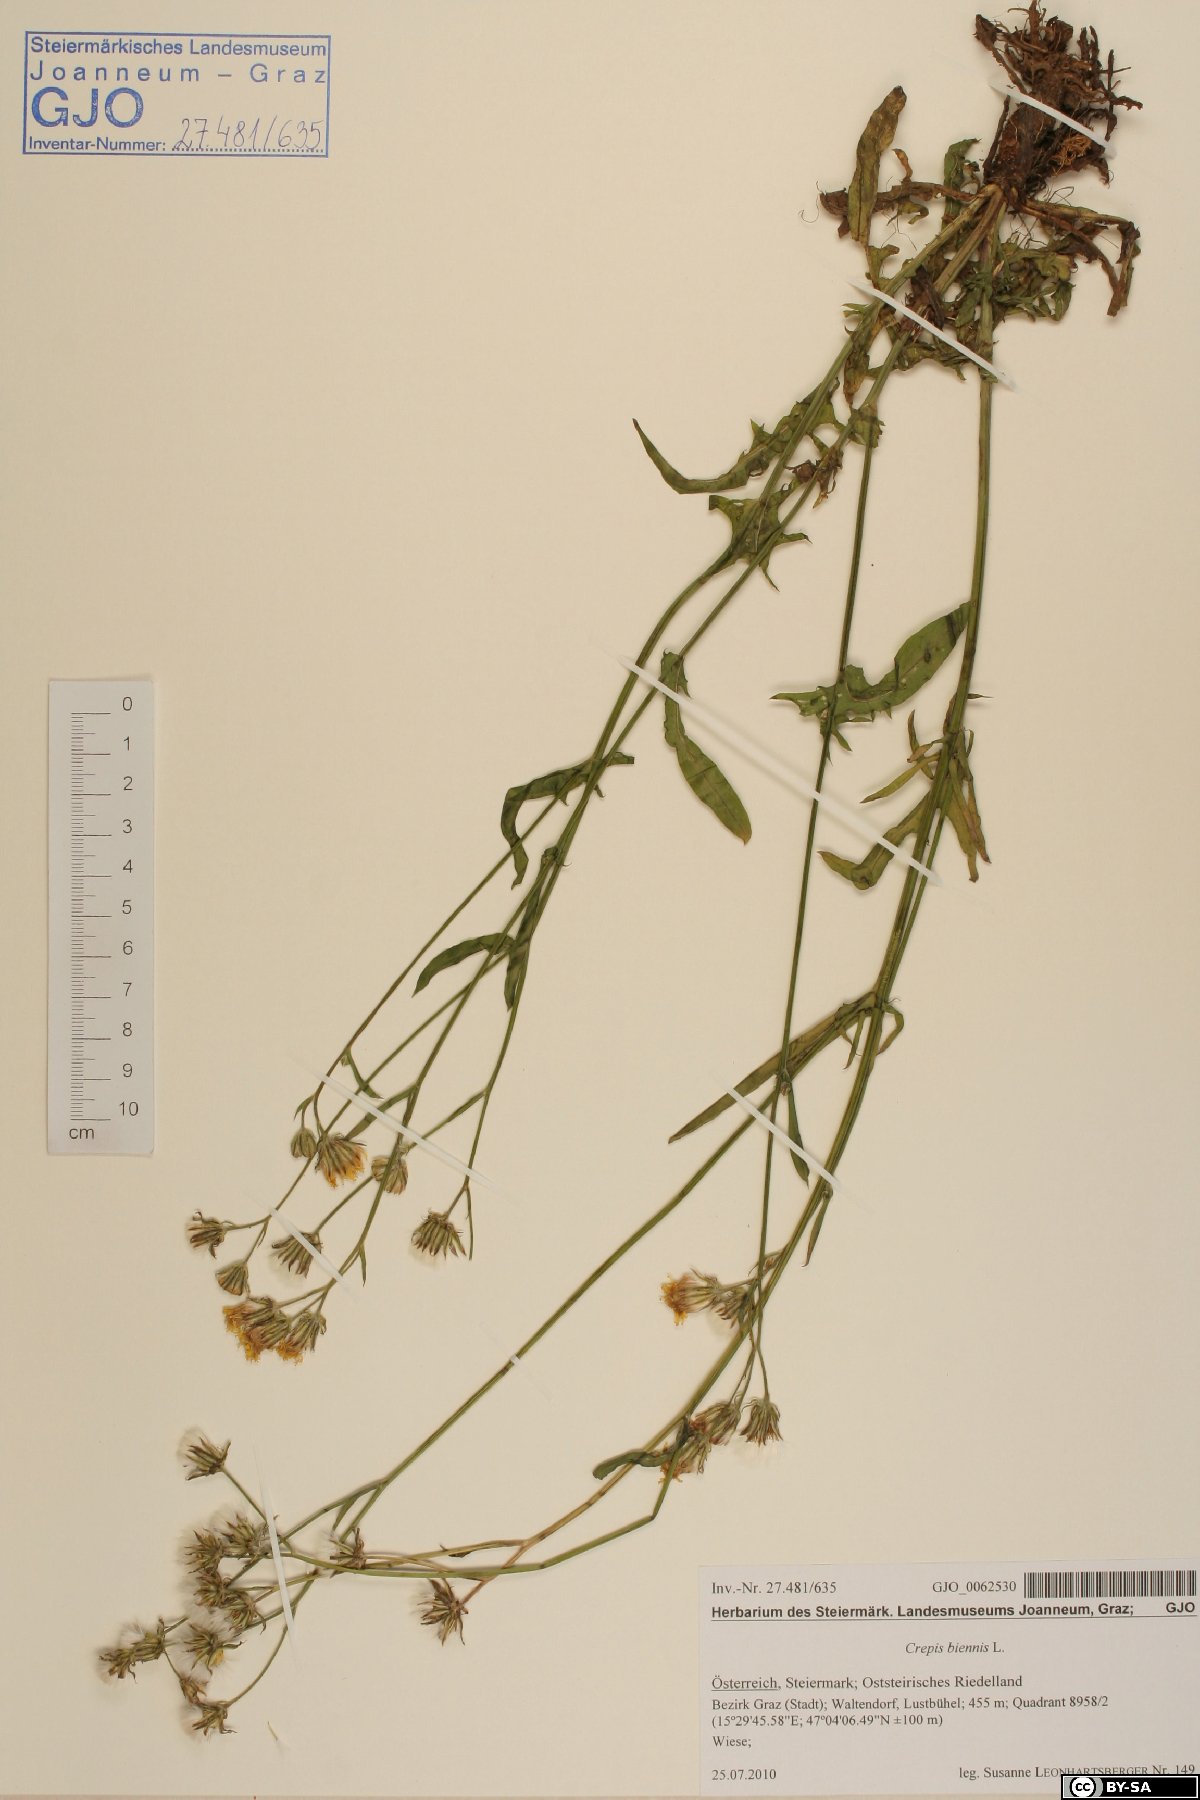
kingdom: Plantae
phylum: Tracheophyta
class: Magnoliopsida
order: Asterales
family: Asteraceae
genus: Crepis
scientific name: Crepis biennis
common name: Rough hawk's-beard
